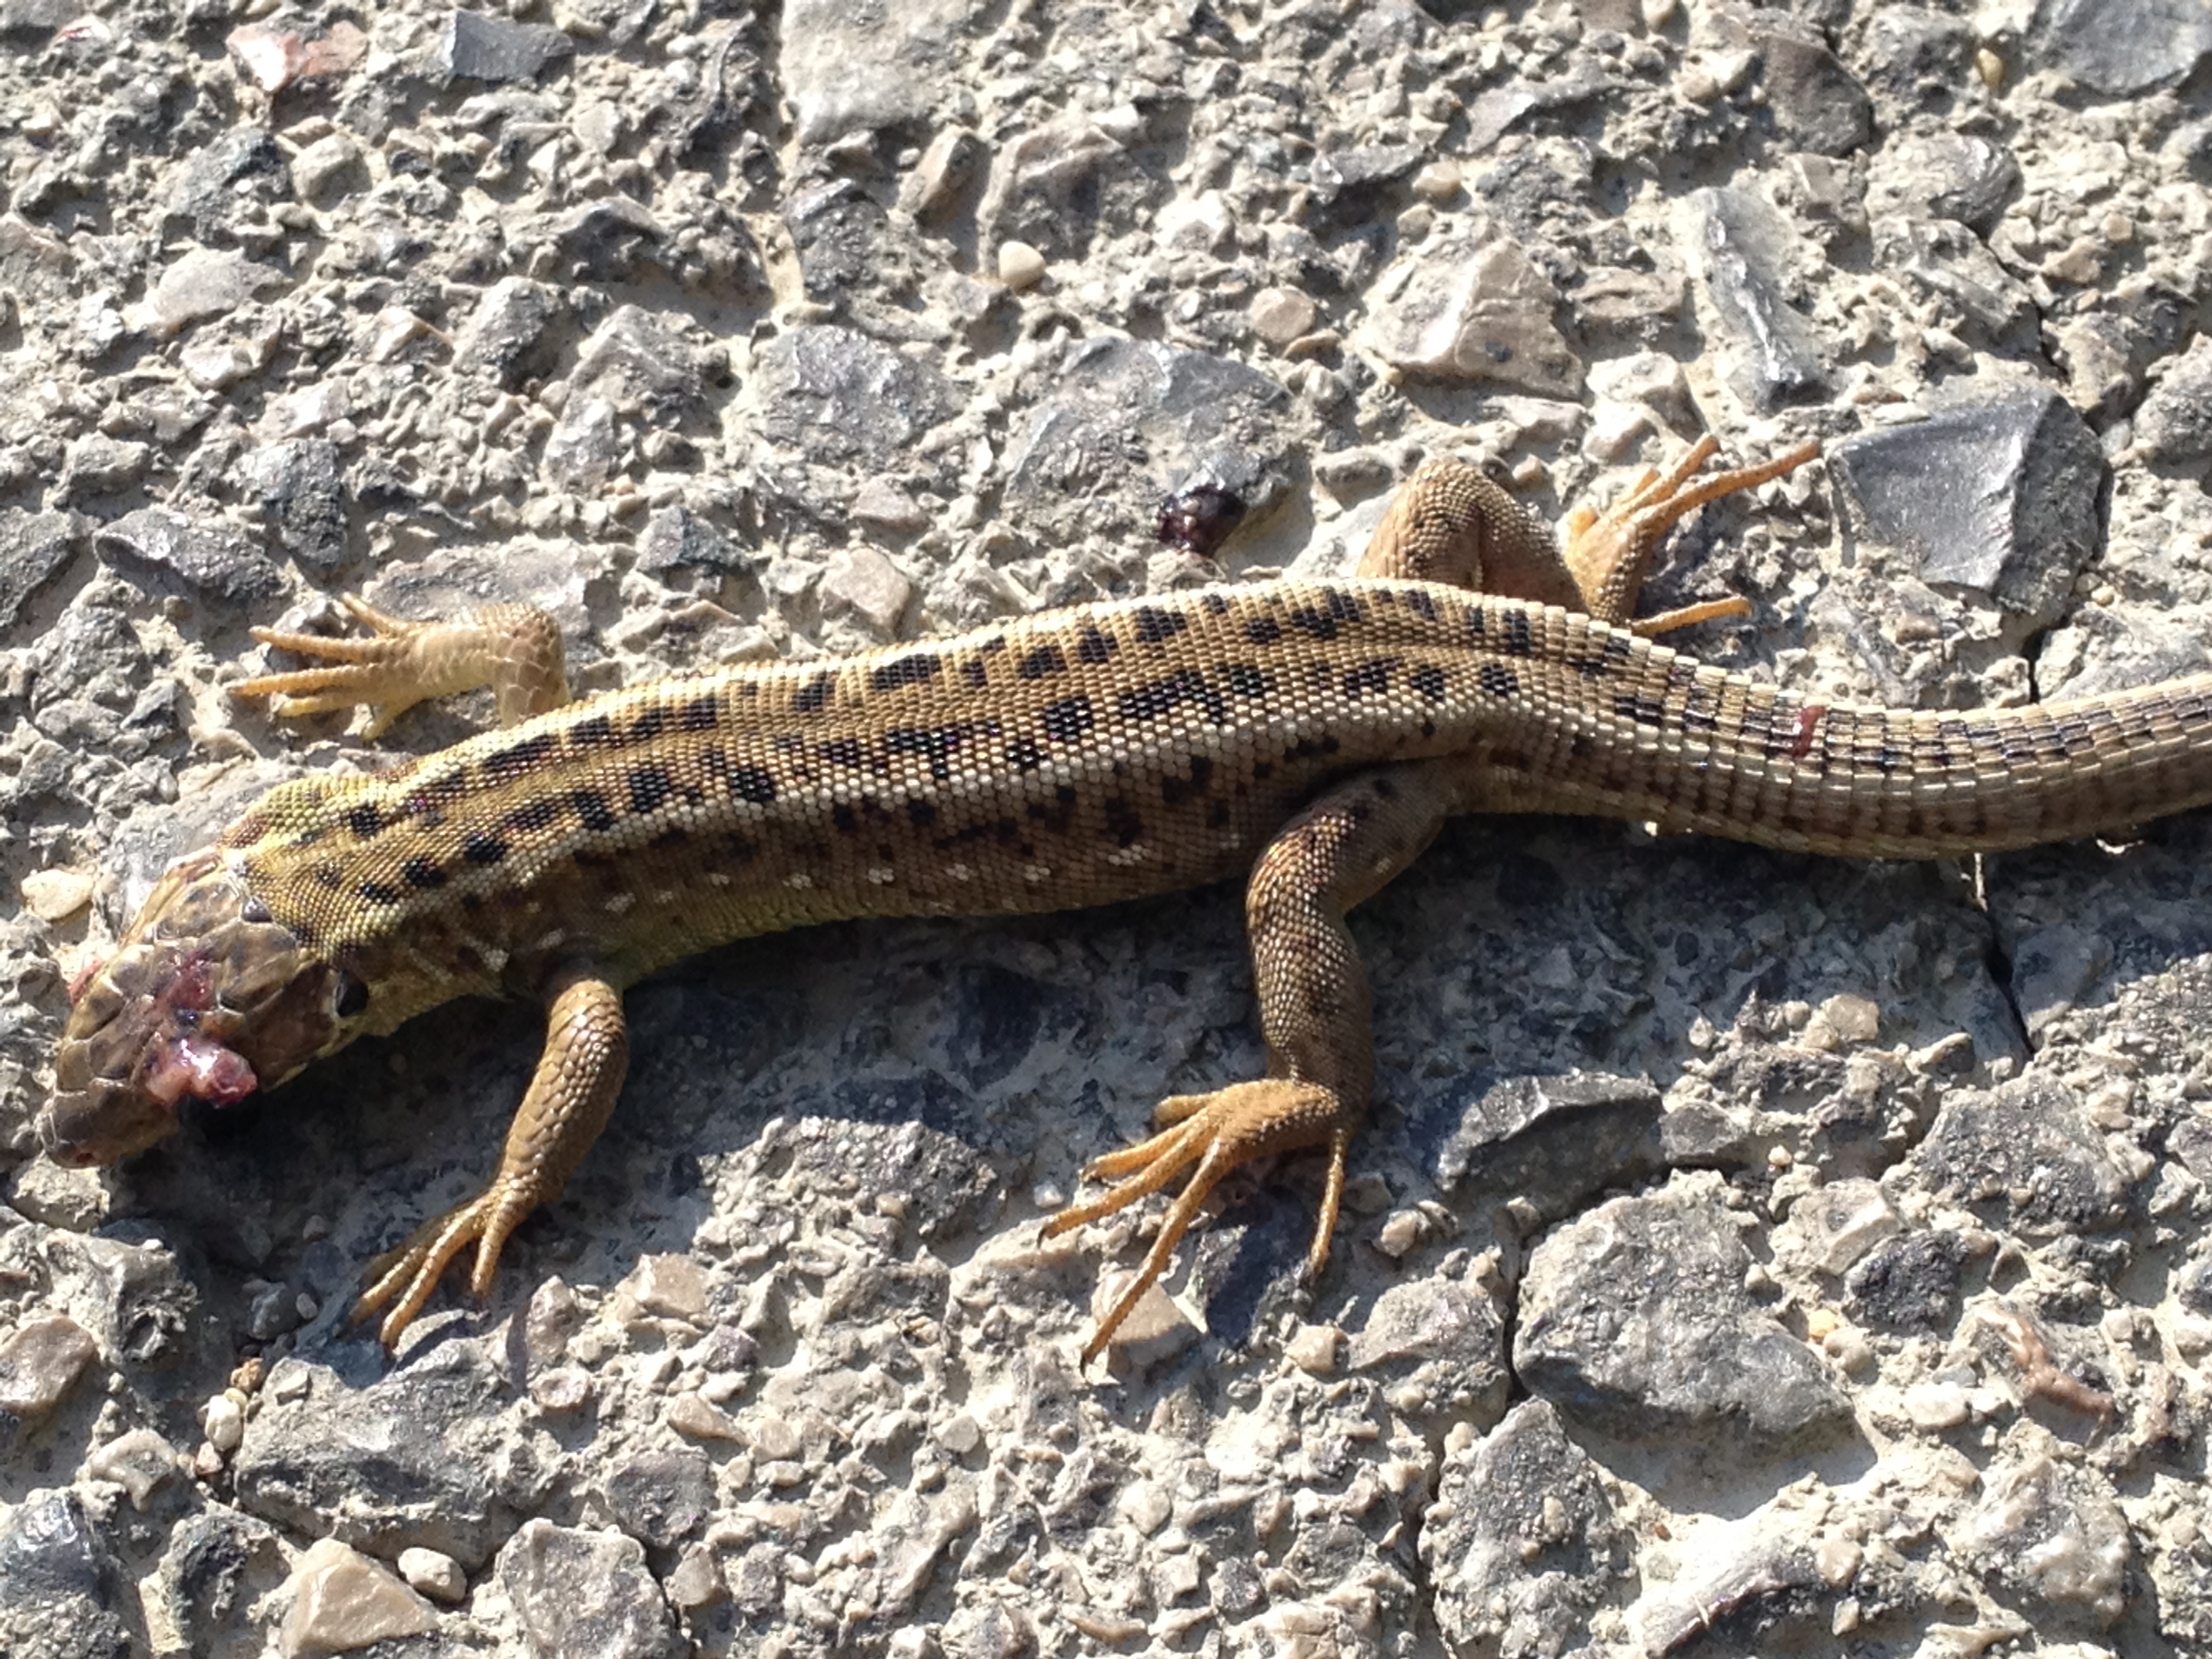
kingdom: Animalia
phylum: Chordata
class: Squamata
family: Lacertidae
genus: Lacerta
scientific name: Lacerta agilis
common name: Sand lizard
